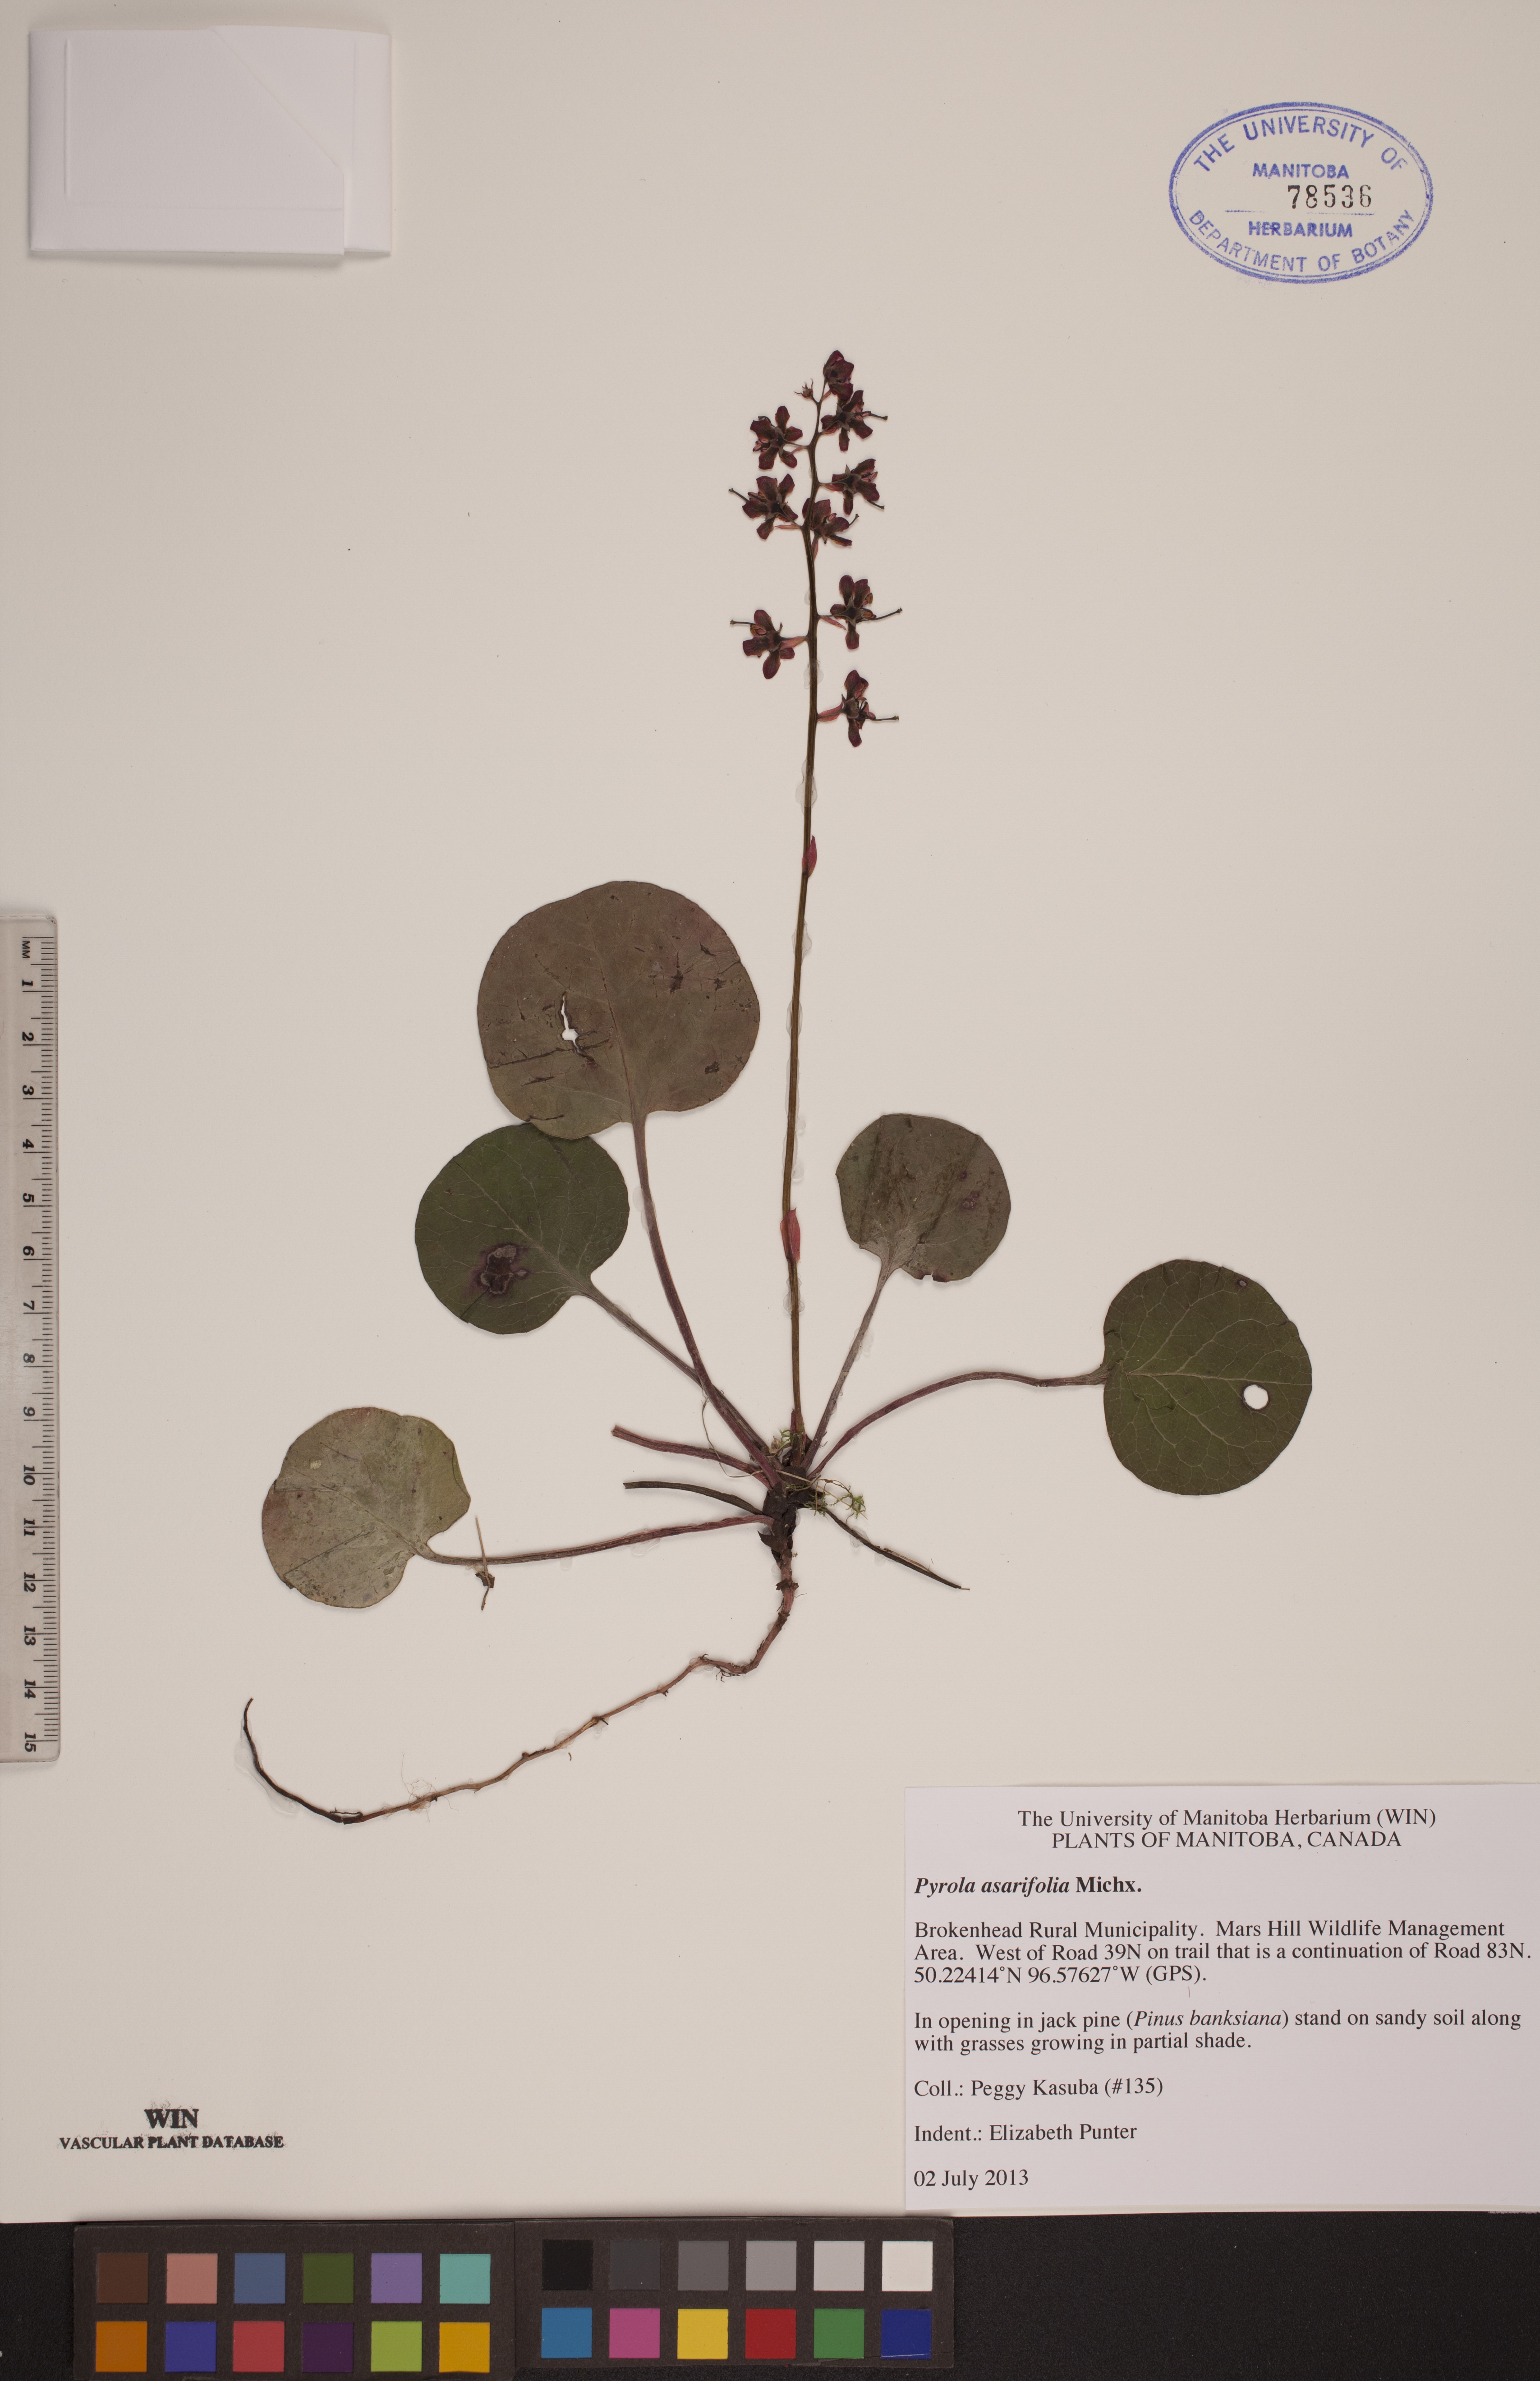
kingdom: Plantae
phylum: Tracheophyta
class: Magnoliopsida
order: Ericales
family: Ericaceae
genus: Pyrola
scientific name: Pyrola asarifolia
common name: Bog wintergreen
